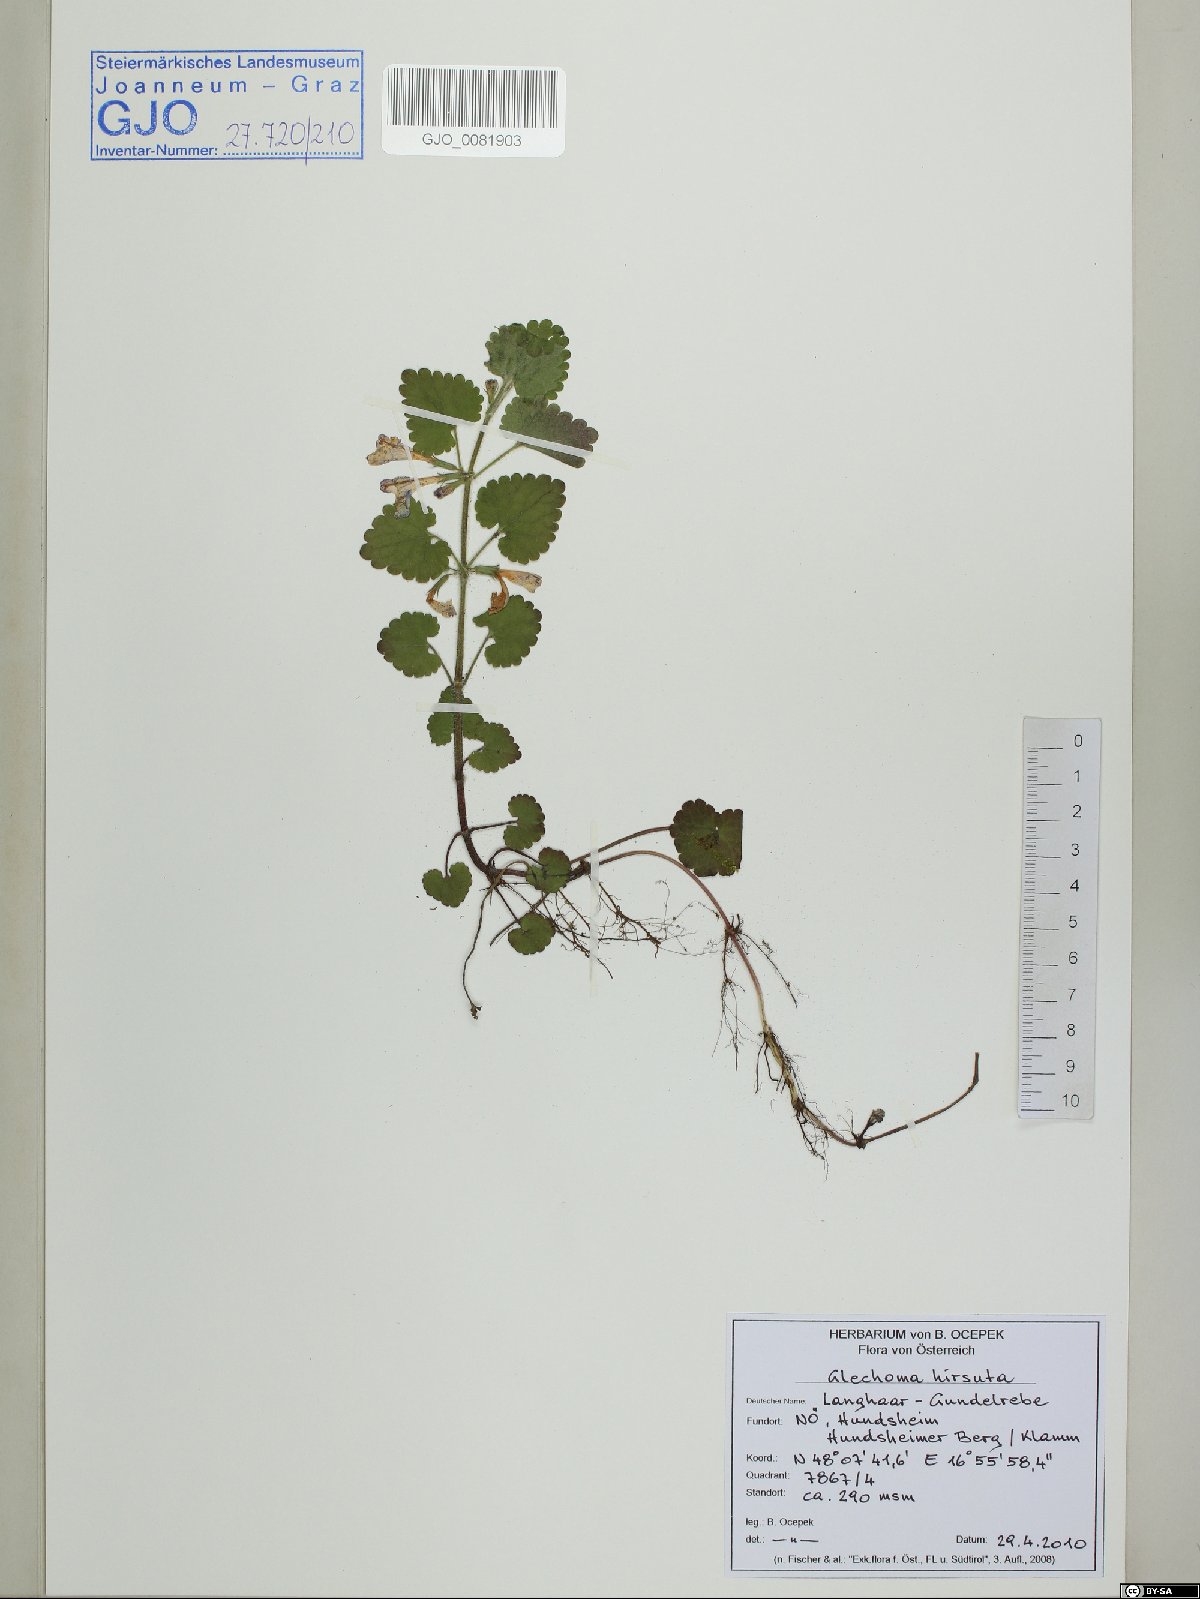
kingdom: Plantae
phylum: Tracheophyta
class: Magnoliopsida
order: Lamiales
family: Lamiaceae
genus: Glechoma
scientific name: Glechoma hirsuta
